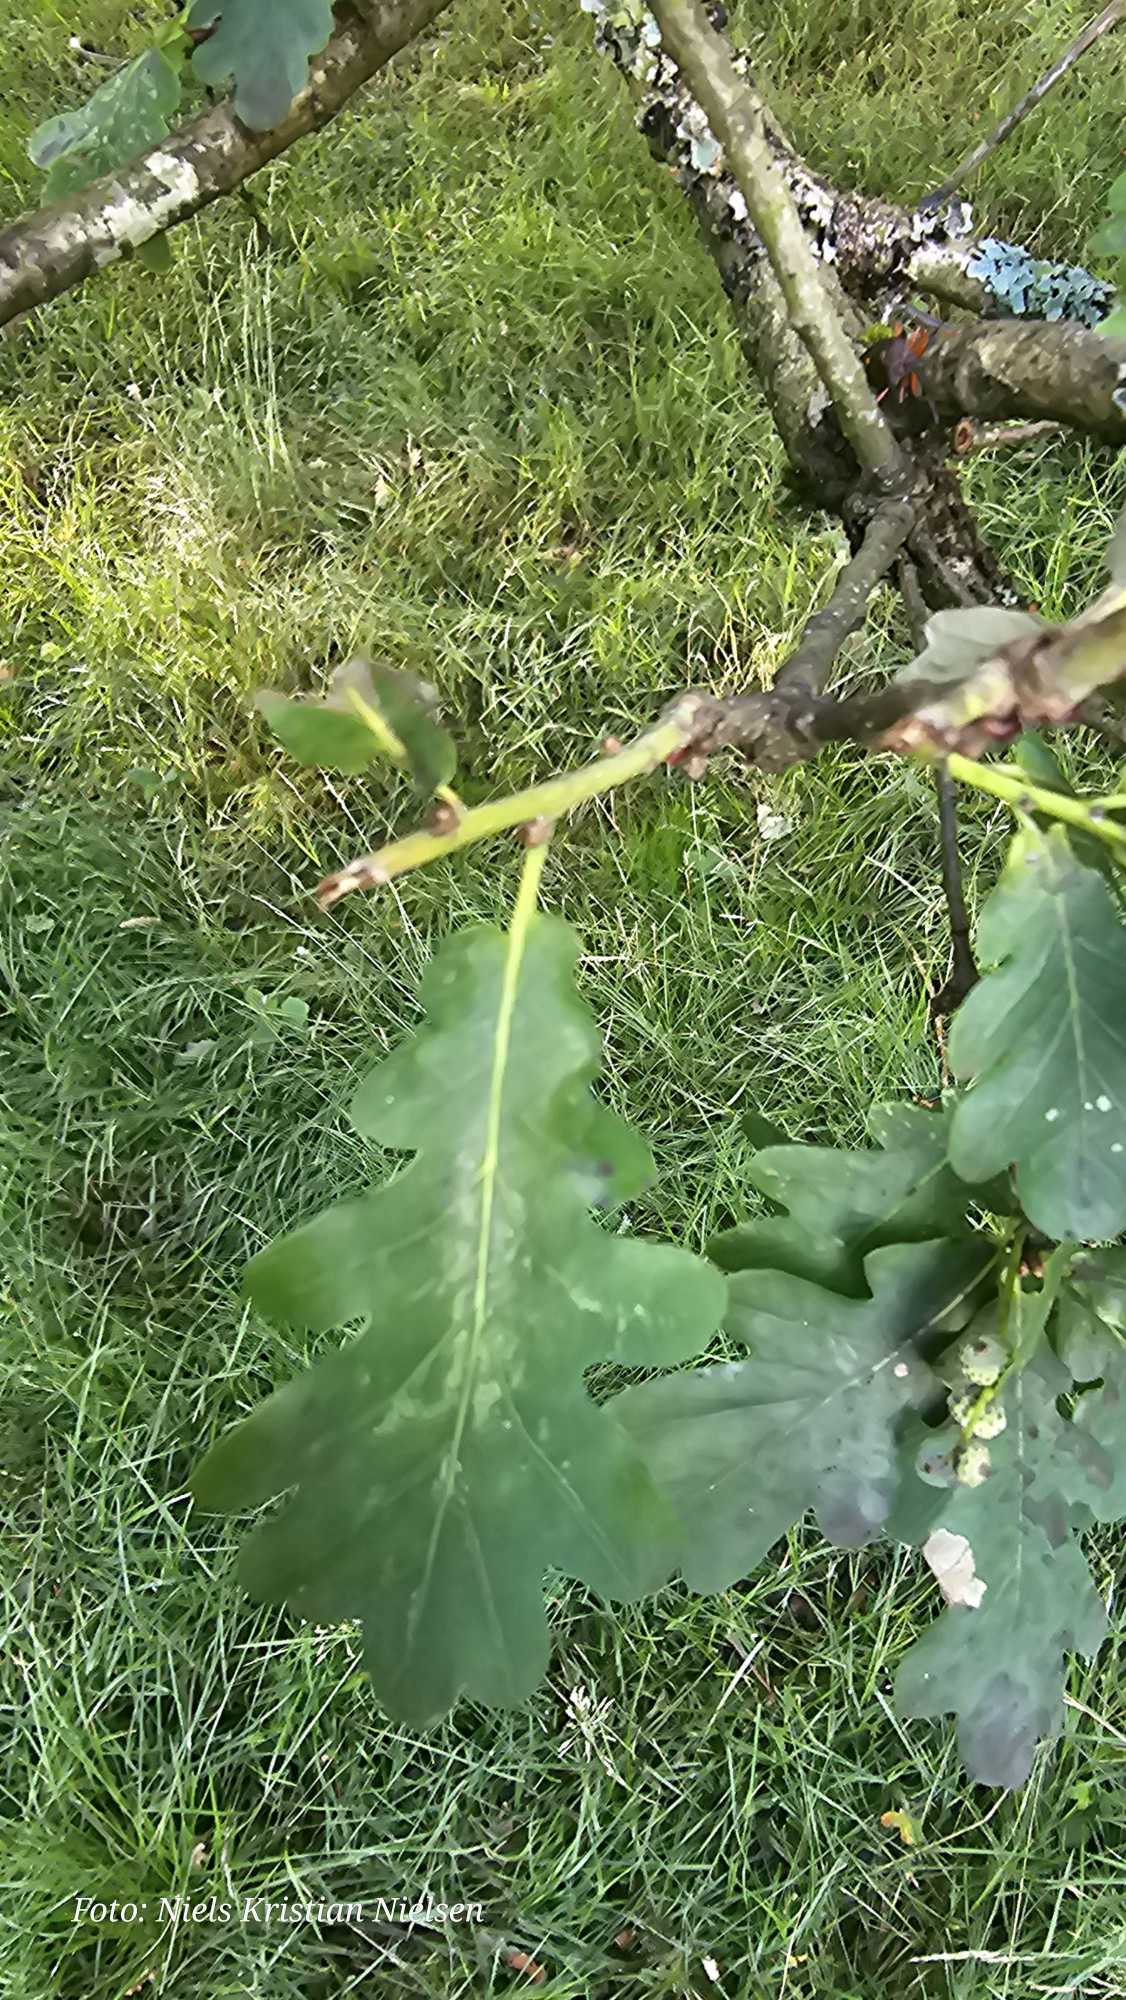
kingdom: Plantae
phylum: Tracheophyta
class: Magnoliopsida
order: Fagales
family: Fagaceae
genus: Quercus
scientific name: Quercus robur
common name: Stilk-eg/almindelig eg
